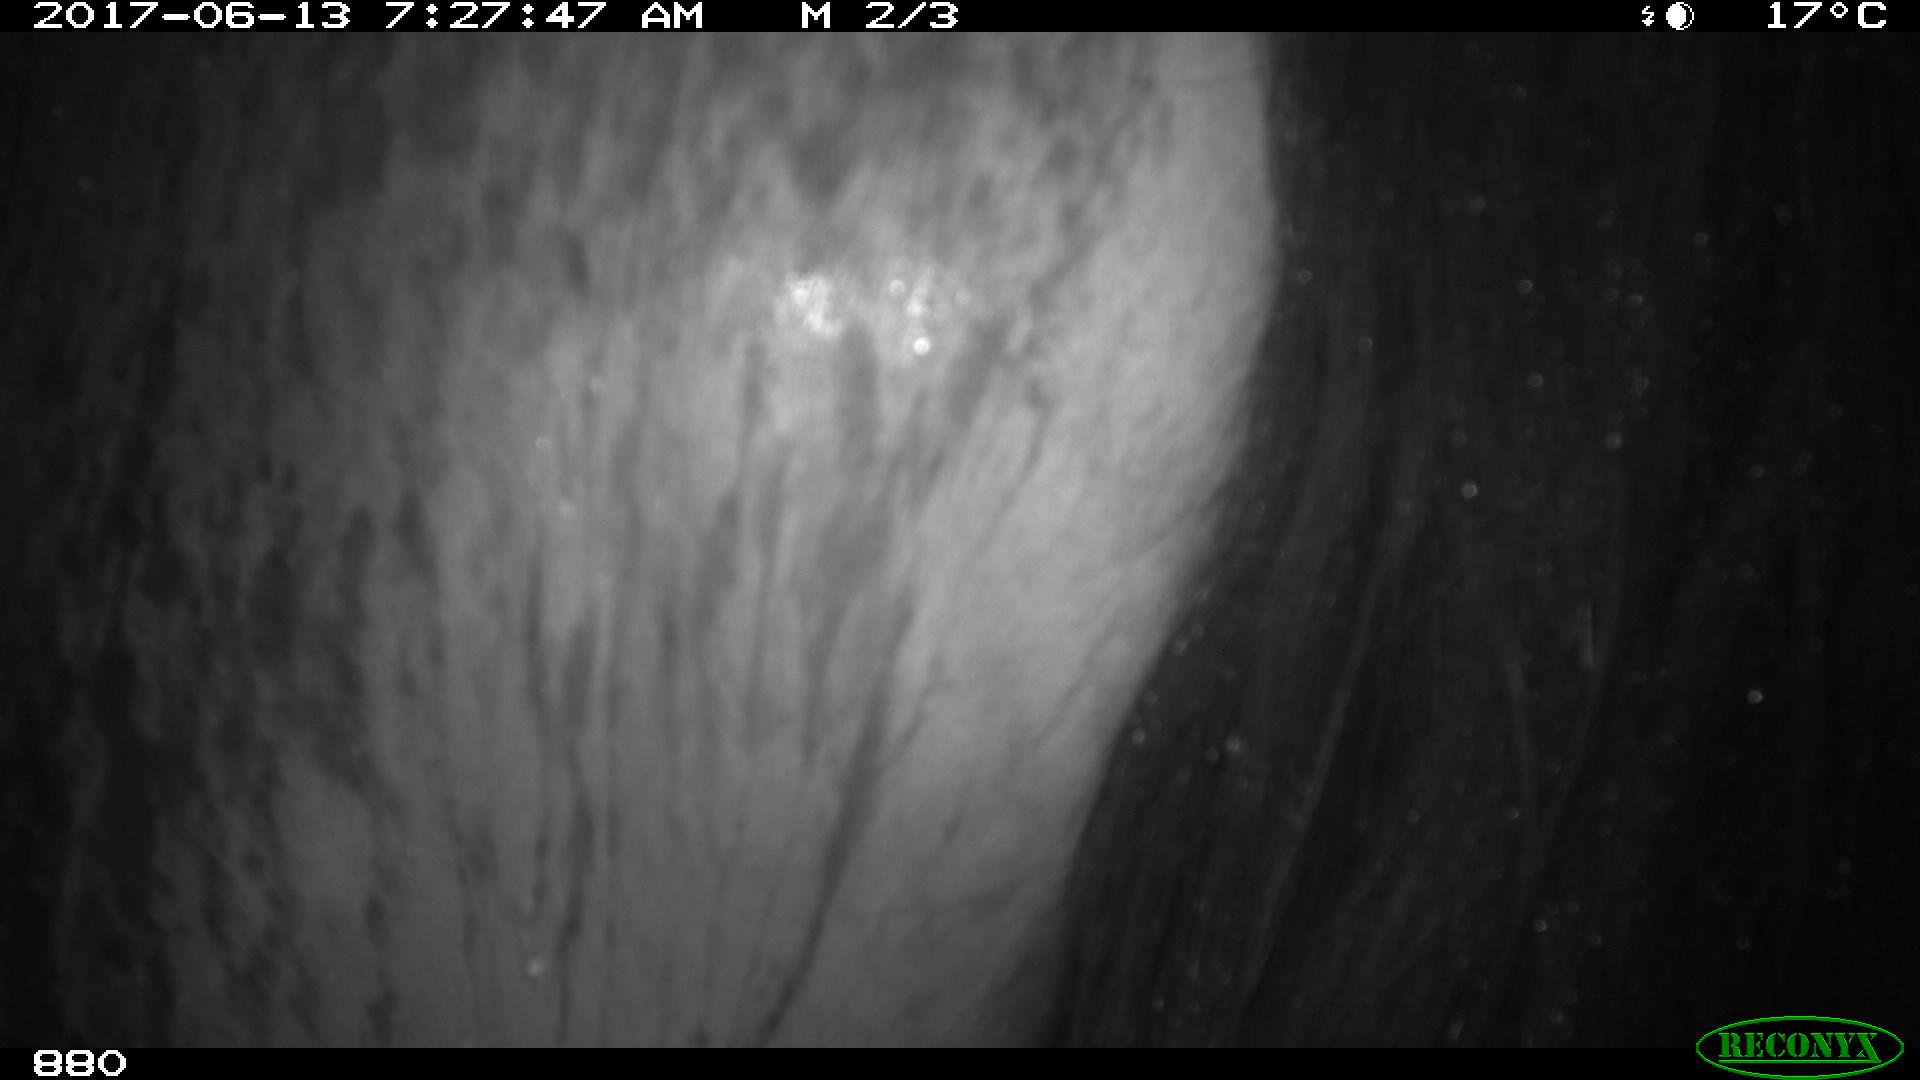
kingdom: Animalia
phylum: Chordata
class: Mammalia
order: Perissodactyla
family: Equidae
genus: Equus
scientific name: Equus caballus
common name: Horse
